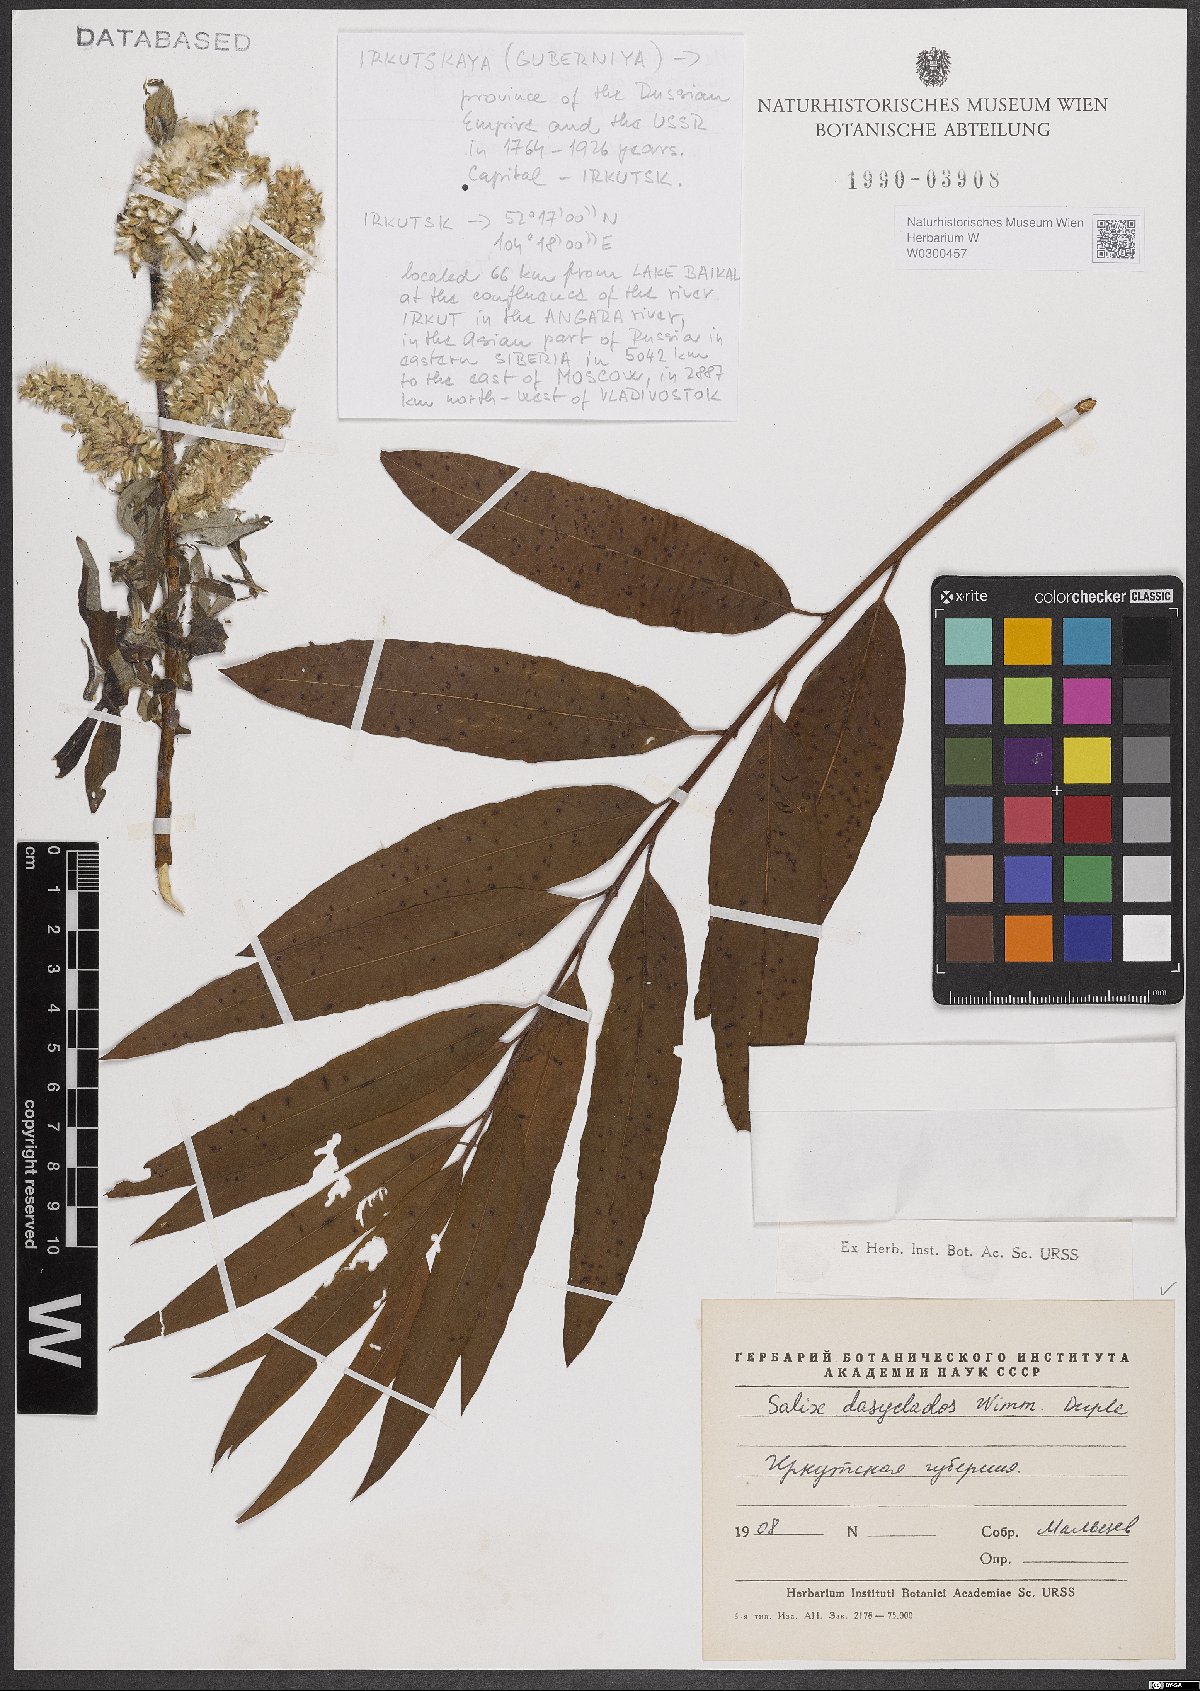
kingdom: Plantae
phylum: Tracheophyta
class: Magnoliopsida
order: Malpighiales
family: Salicaceae
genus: Salix
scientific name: Salix gmelinii
